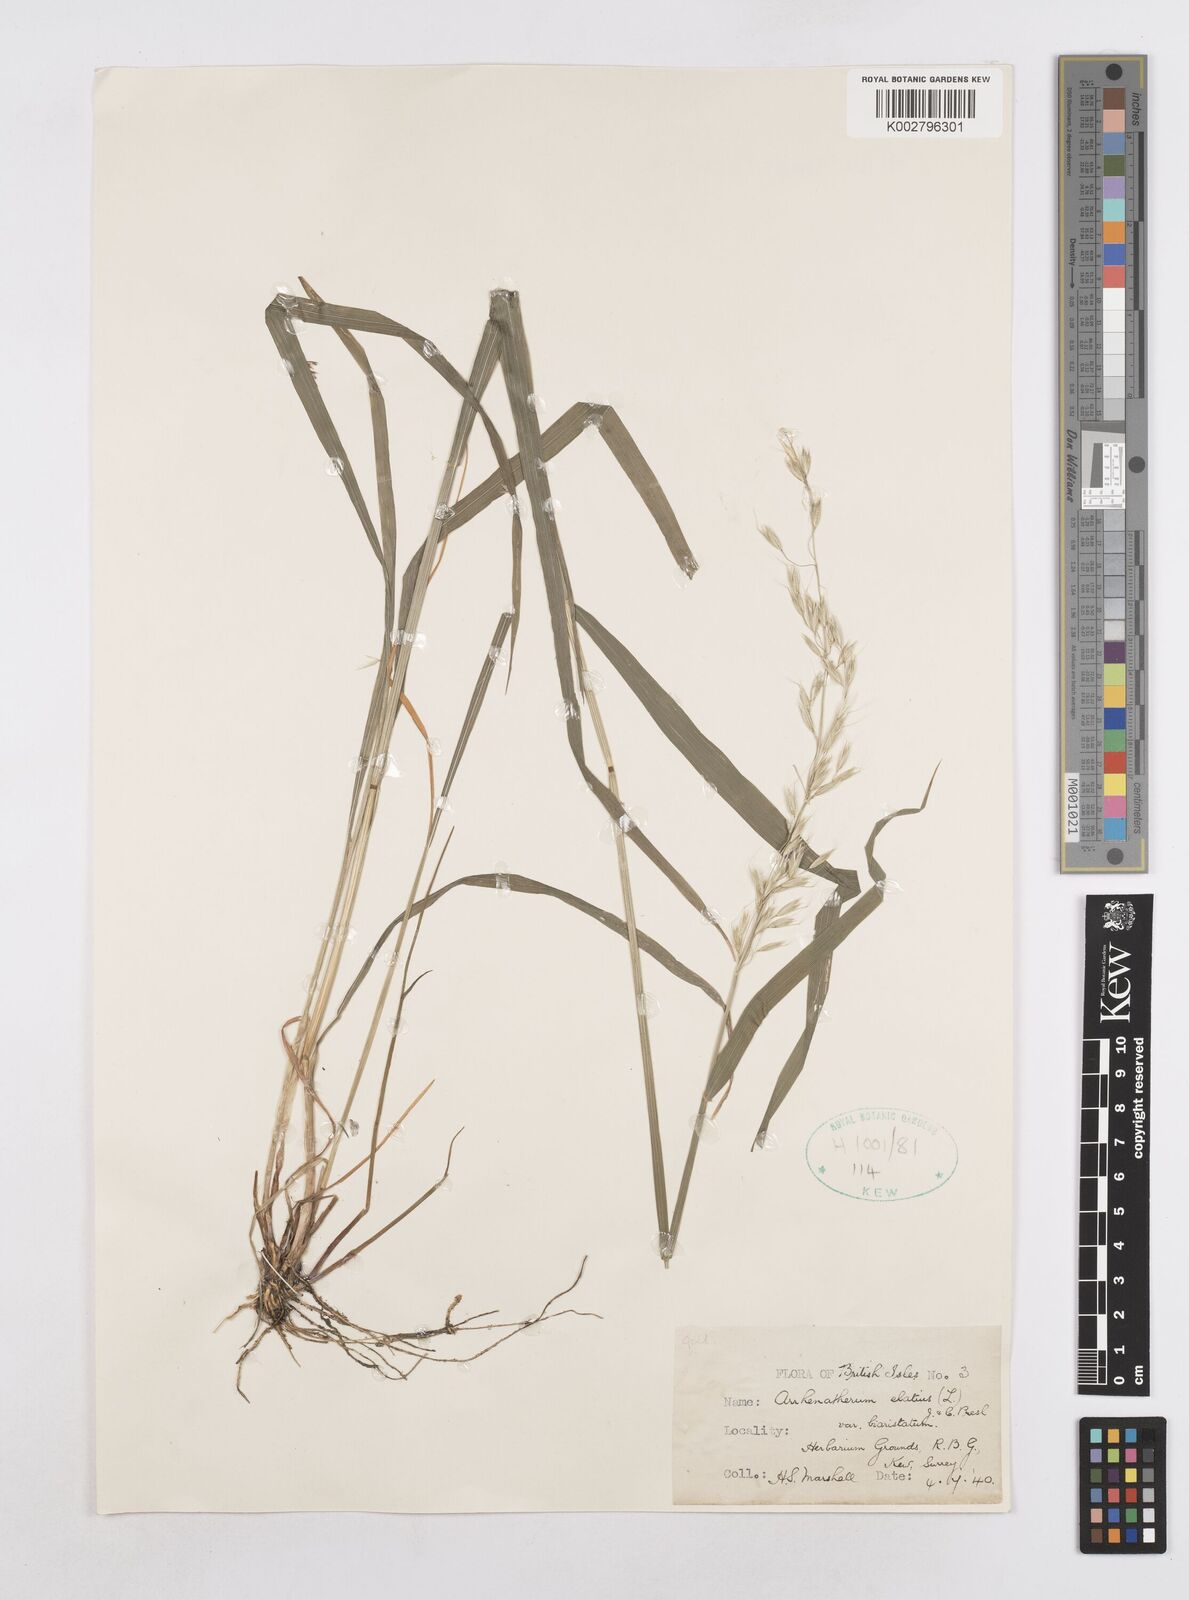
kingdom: Plantae
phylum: Tracheophyta
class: Liliopsida
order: Poales
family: Poaceae
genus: Arrhenatherum
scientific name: Arrhenatherum elatius
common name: Tall oatgrass
